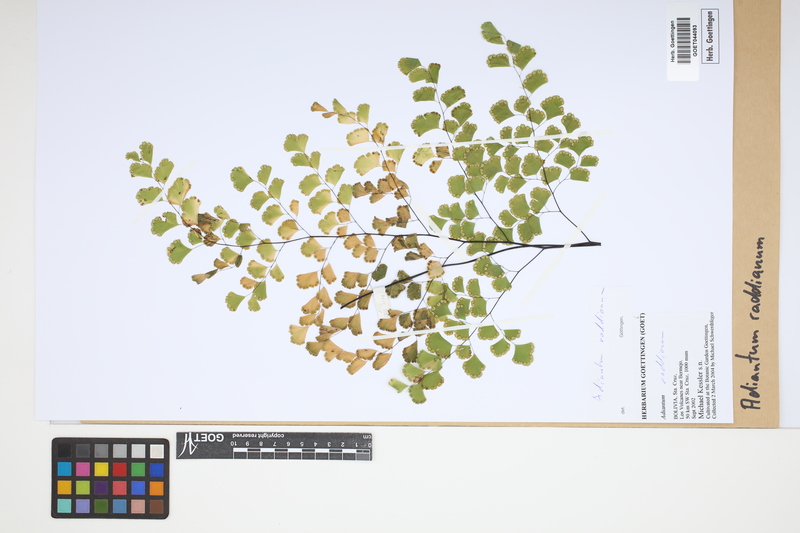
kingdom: Plantae
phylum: Tracheophyta
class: Polypodiopsida
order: Polypodiales
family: Pteridaceae
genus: Adiantum
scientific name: Adiantum raddianum
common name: Delta maidenhair fern
